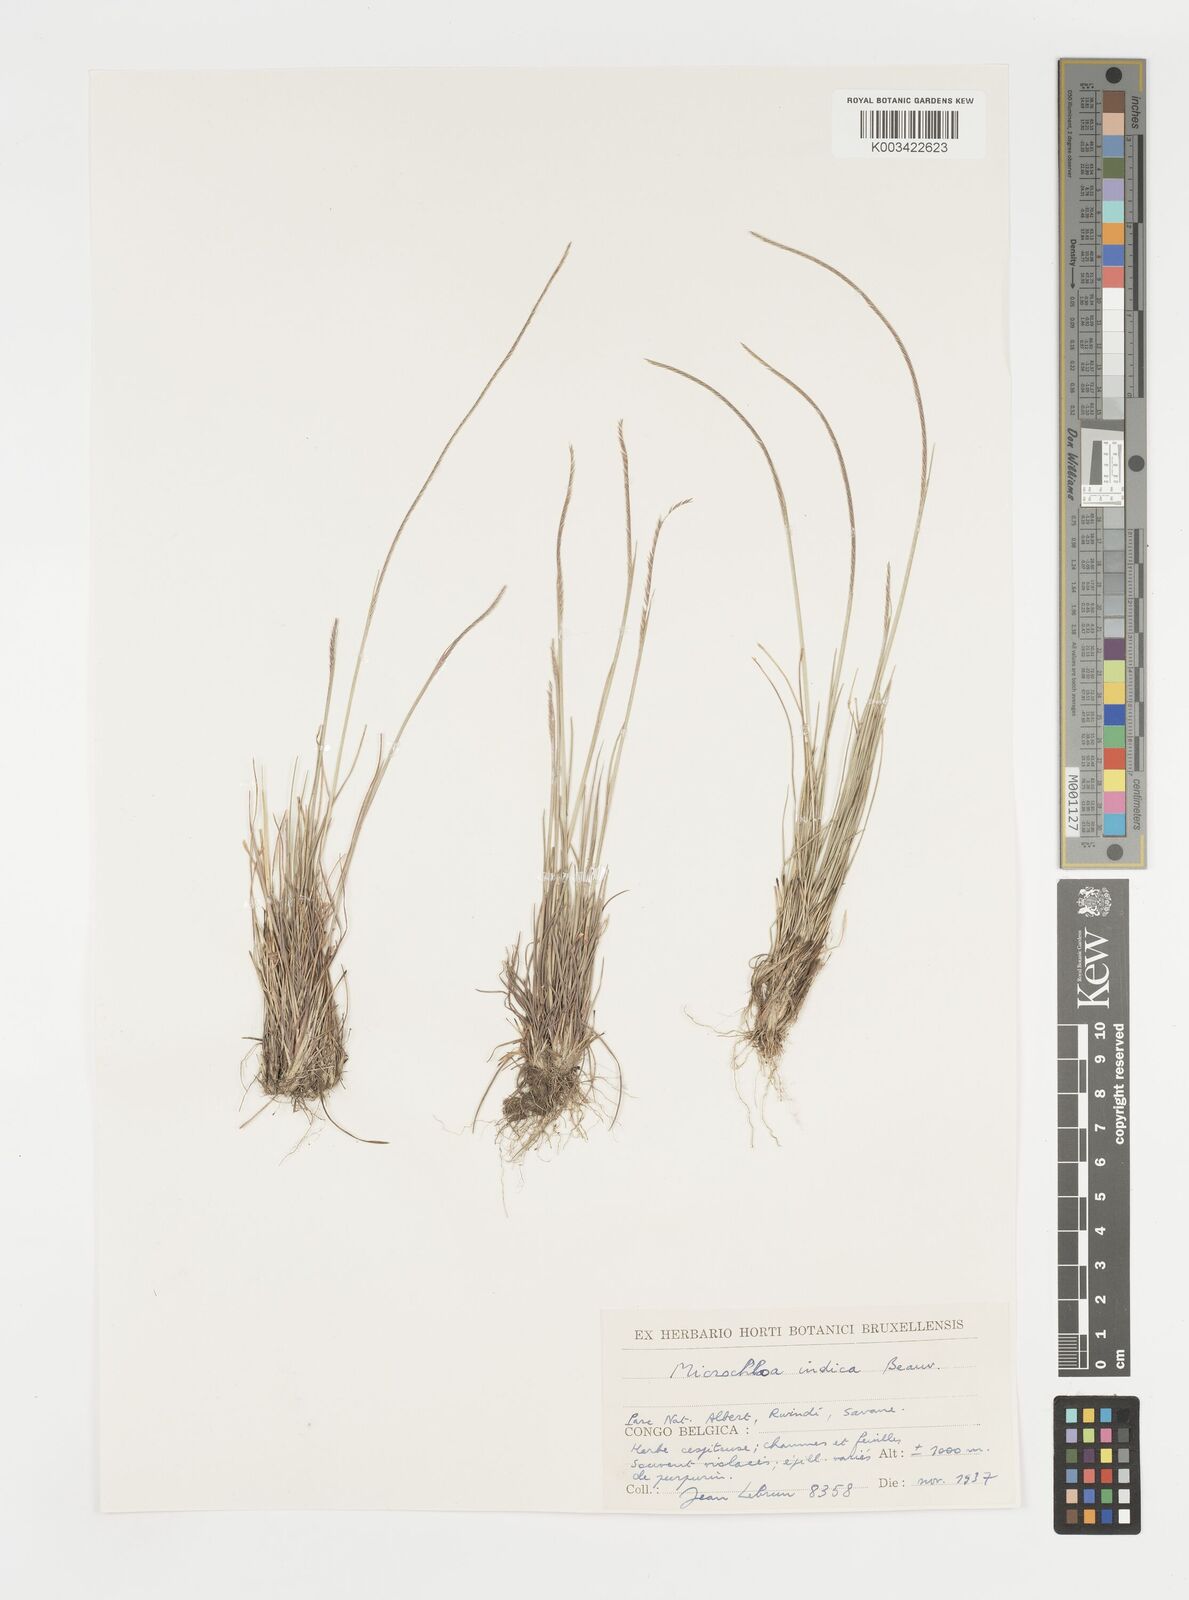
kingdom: Plantae
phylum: Tracheophyta
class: Liliopsida
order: Poales
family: Poaceae
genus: Microchloa
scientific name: Microchloa kunthii
